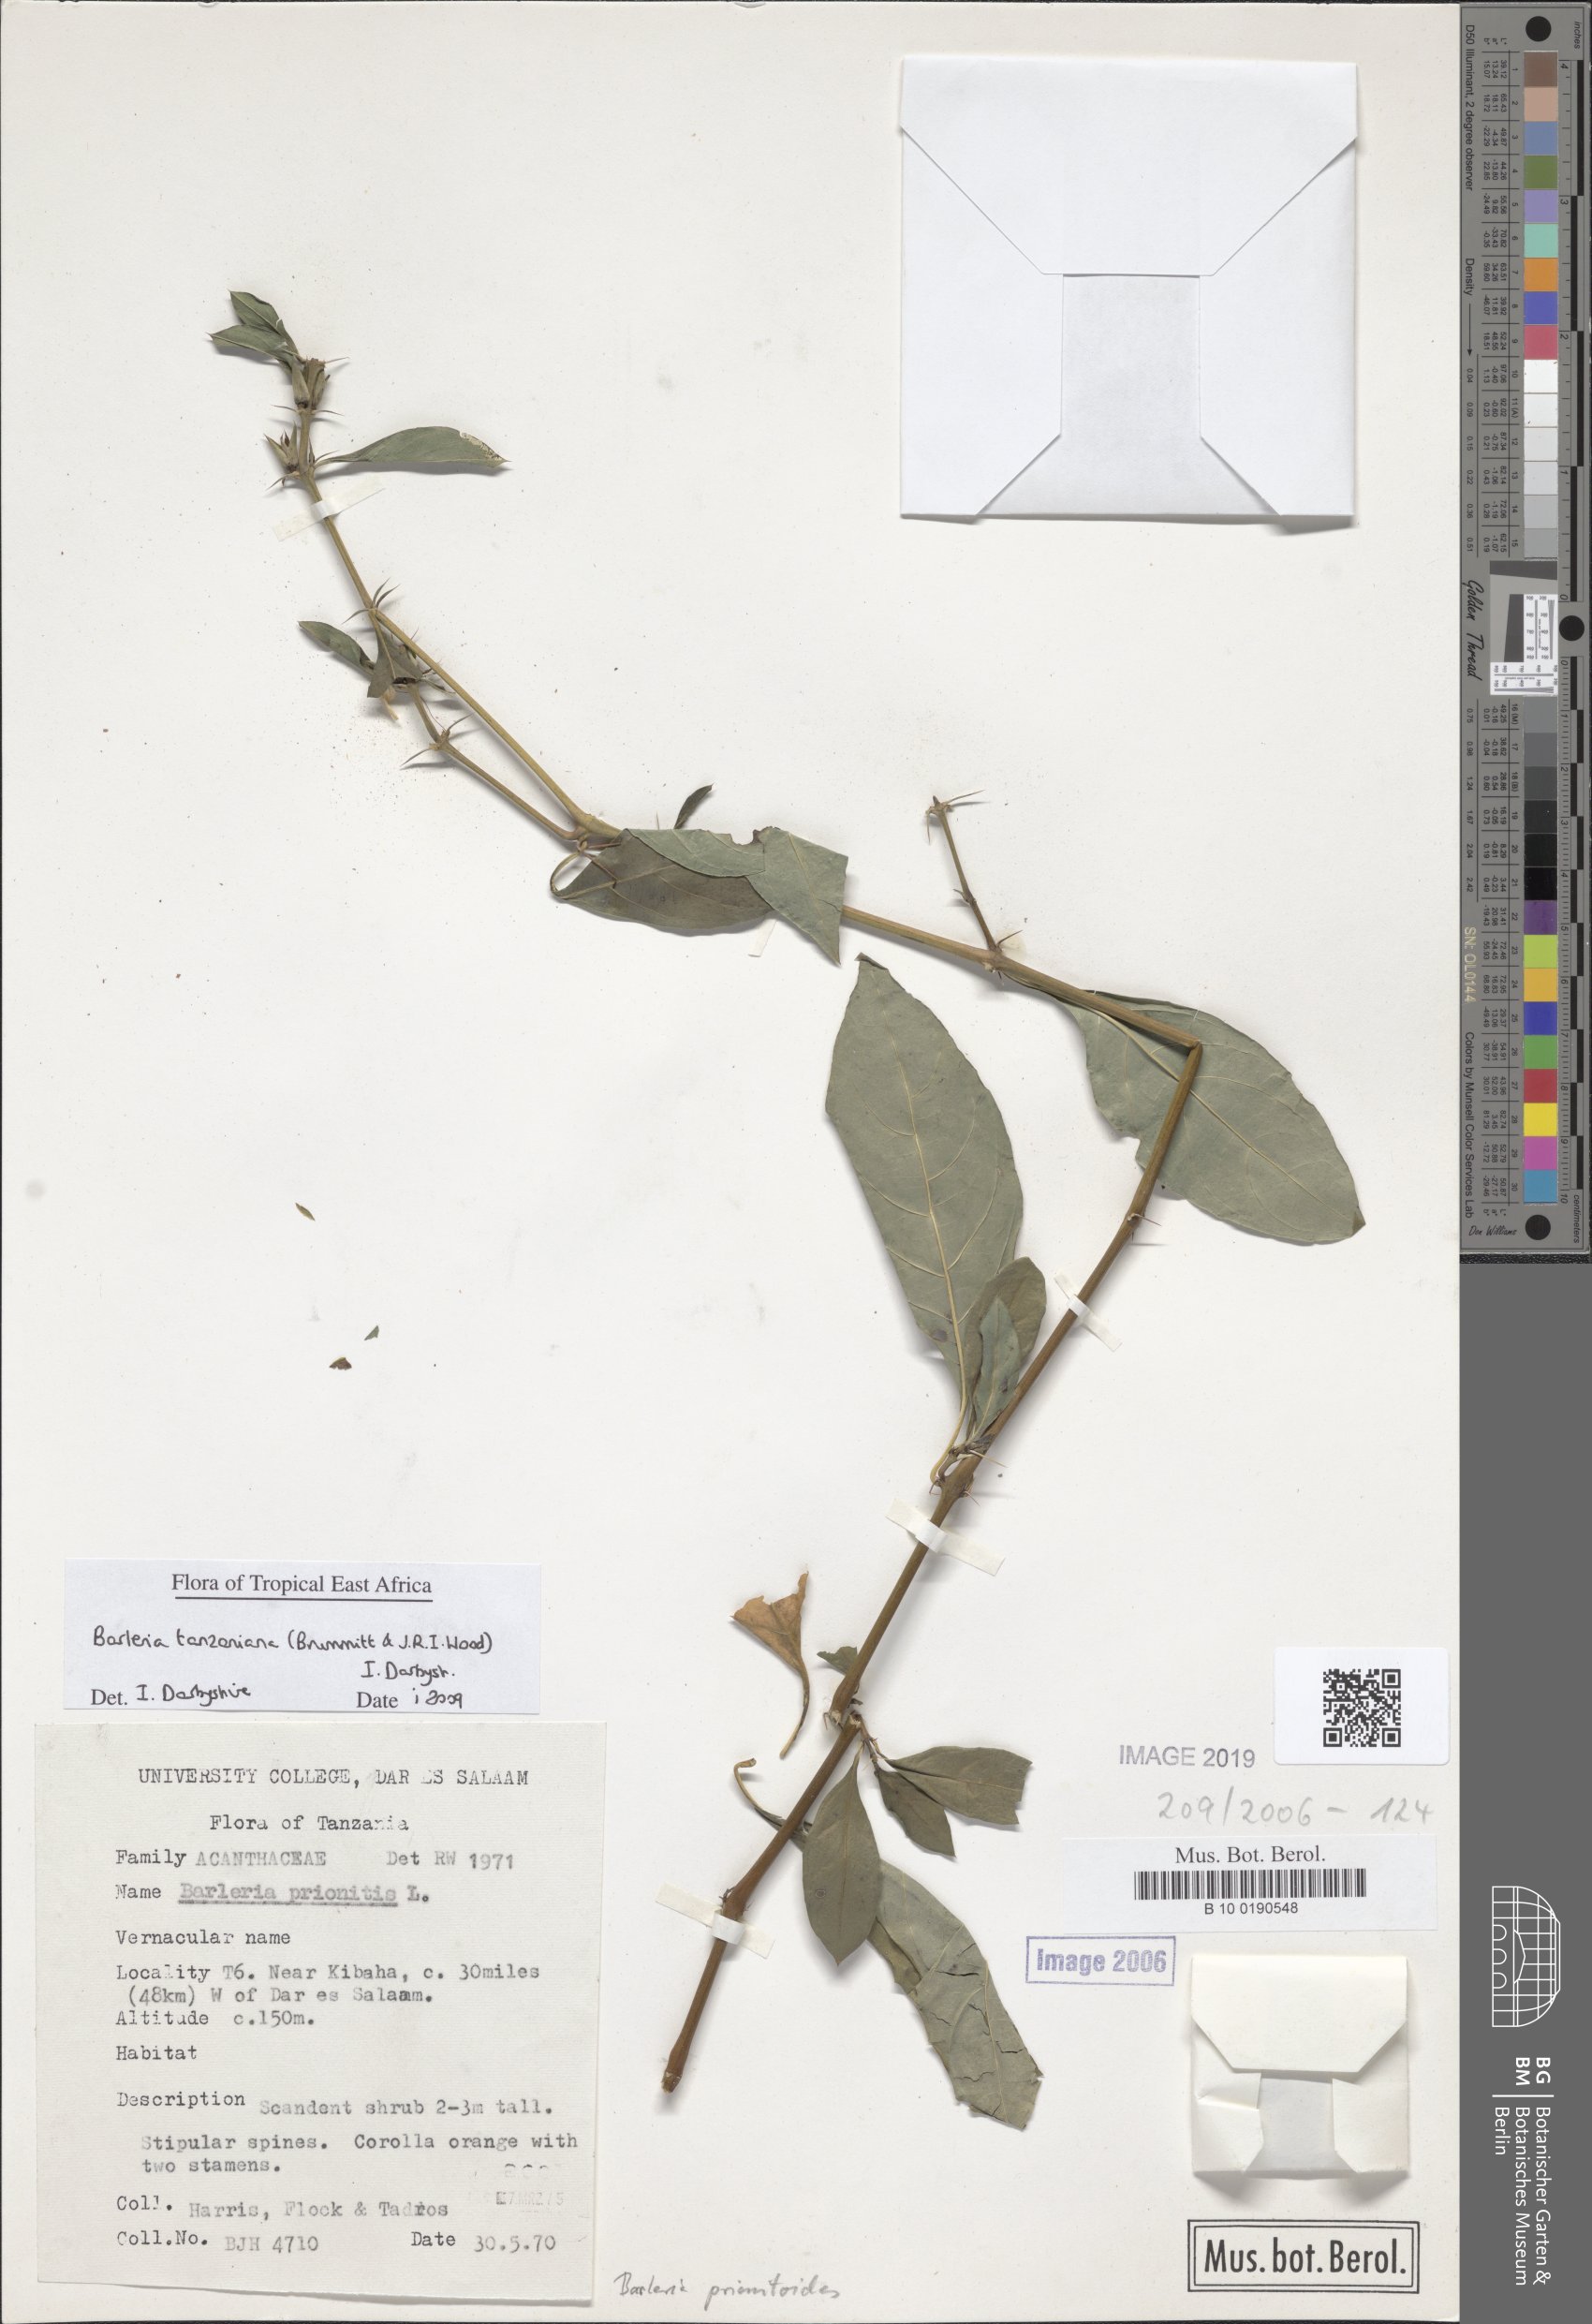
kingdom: Plantae
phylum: Tracheophyta
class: Magnoliopsida
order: Lamiales
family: Acanthaceae
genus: Barleria
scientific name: Barleria prionitis
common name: Barleria
